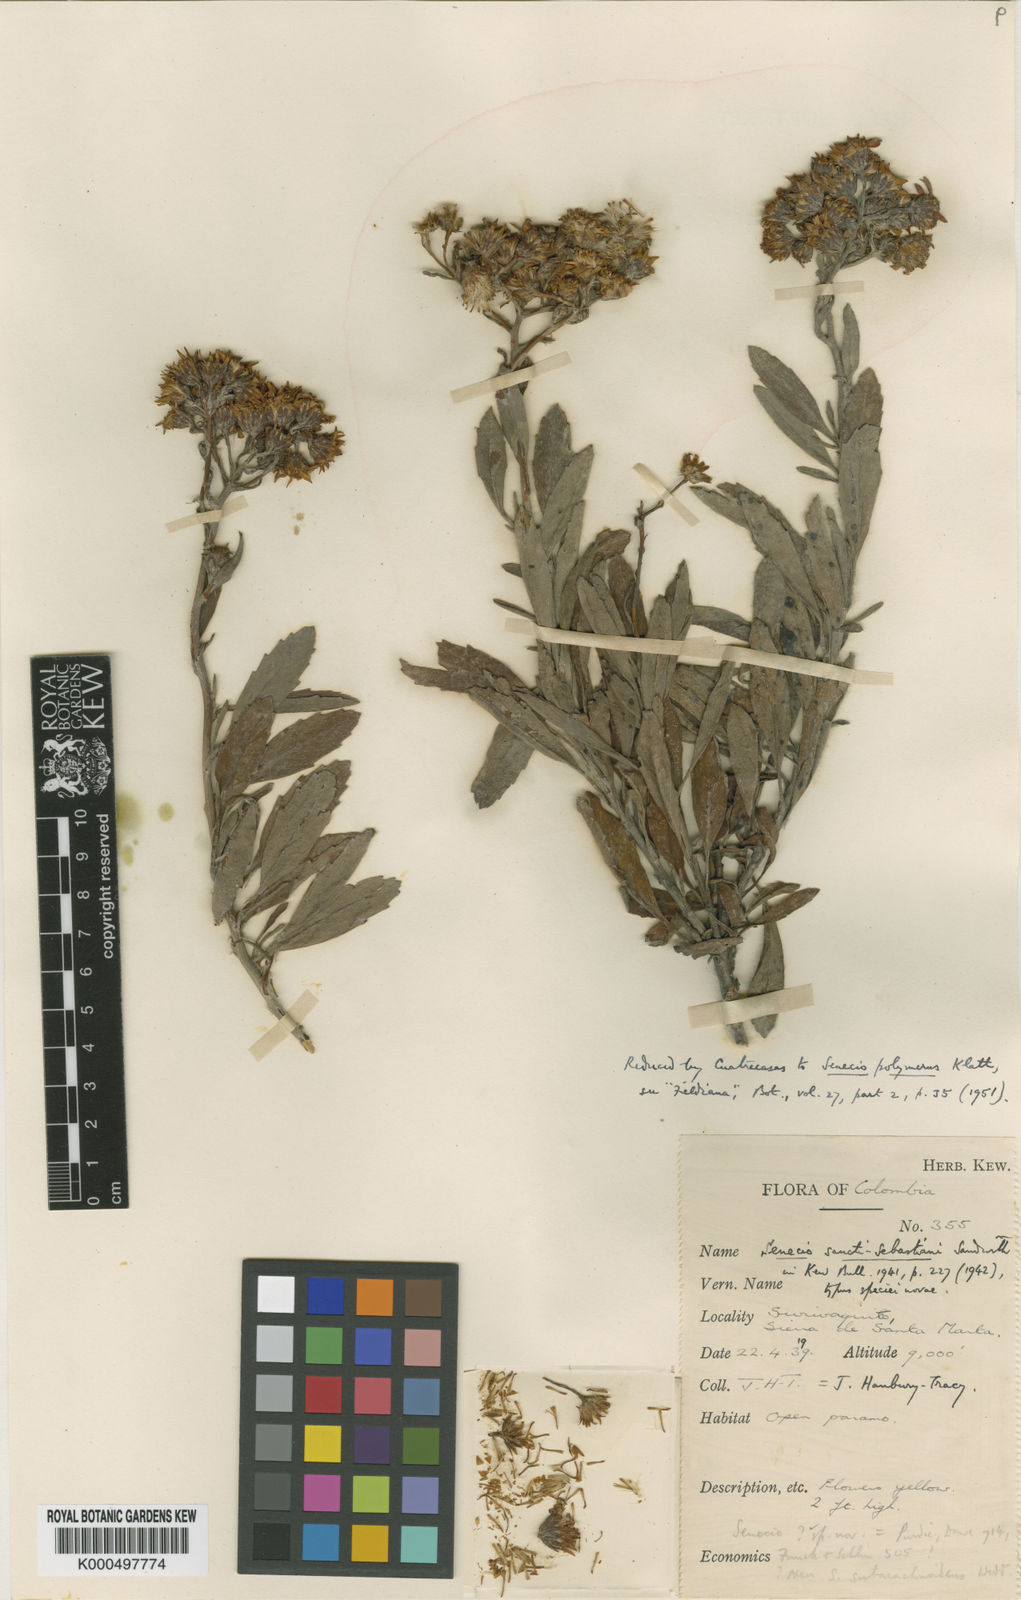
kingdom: Plantae
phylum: Tracheophyta
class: Magnoliopsida
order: Asterales
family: Asteraceae
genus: Monticalia
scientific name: Monticalia polymera
